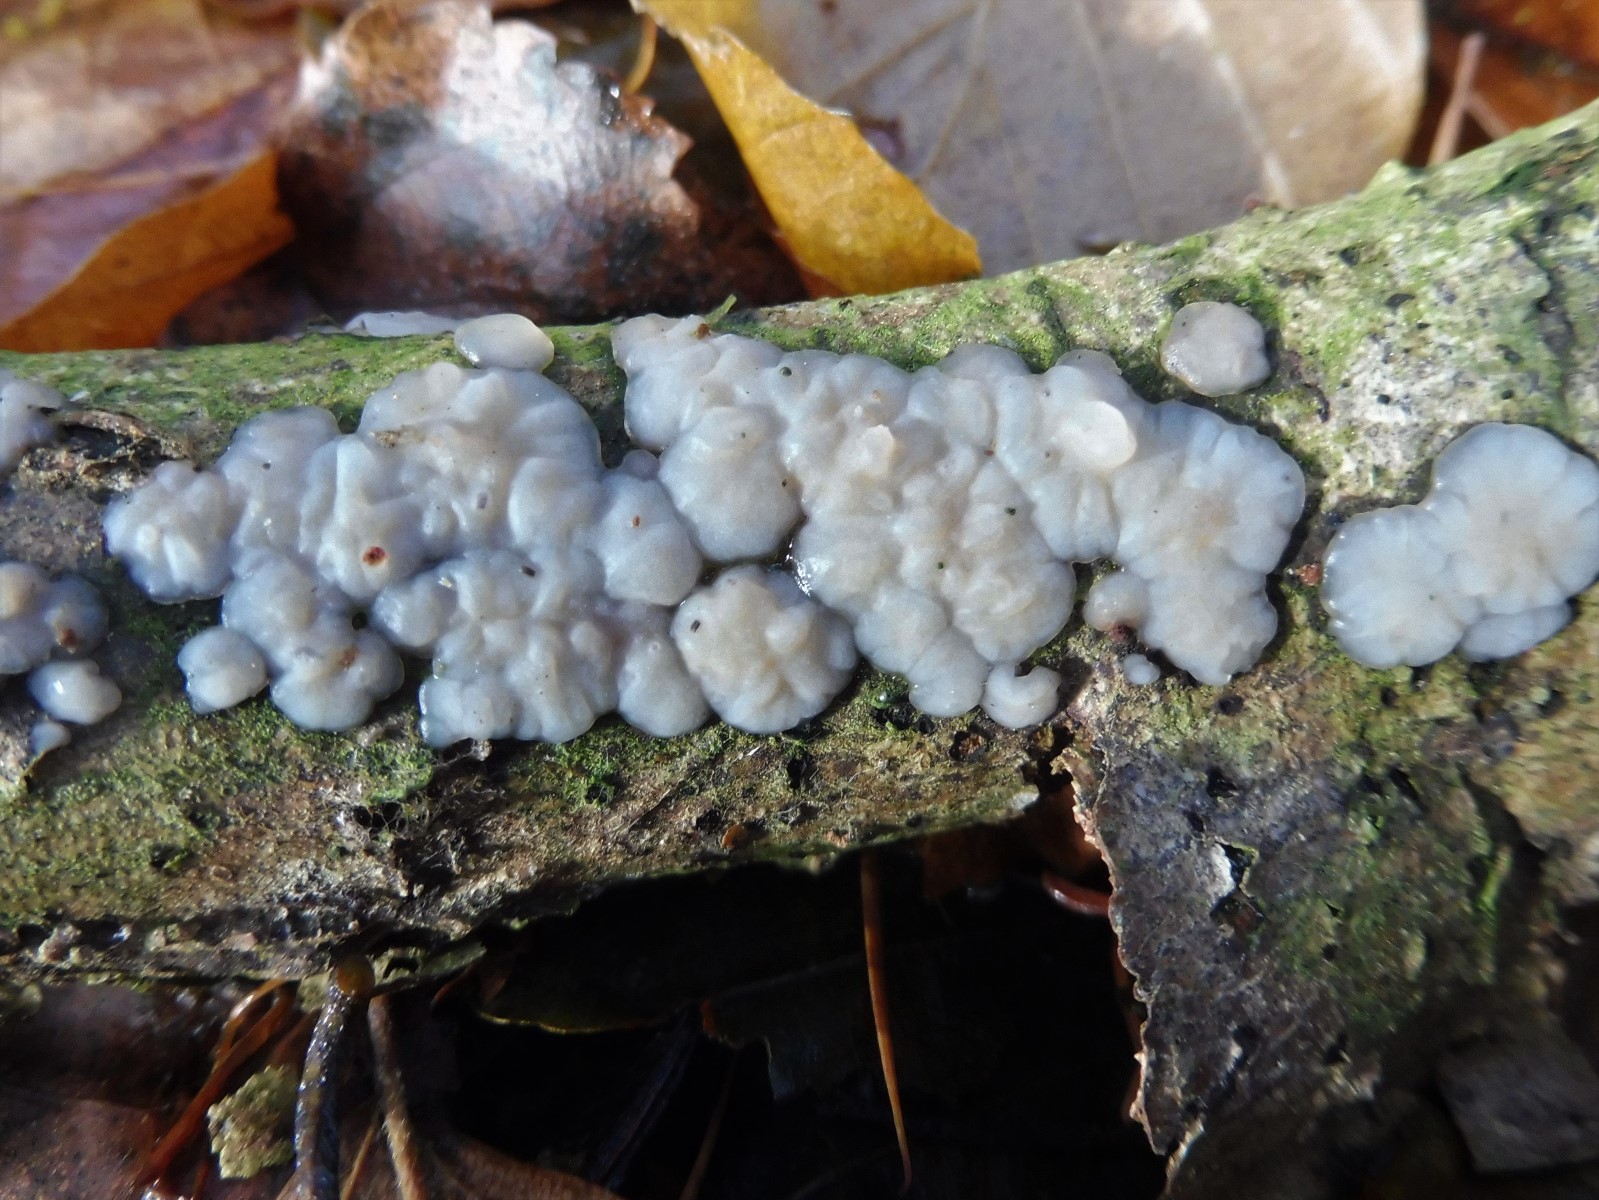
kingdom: Fungi
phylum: Basidiomycota
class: Agaricomycetes
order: Auriculariales
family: Auriculariaceae
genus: Exidia
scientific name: Exidia thuretiana
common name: hvidlig bævretop
